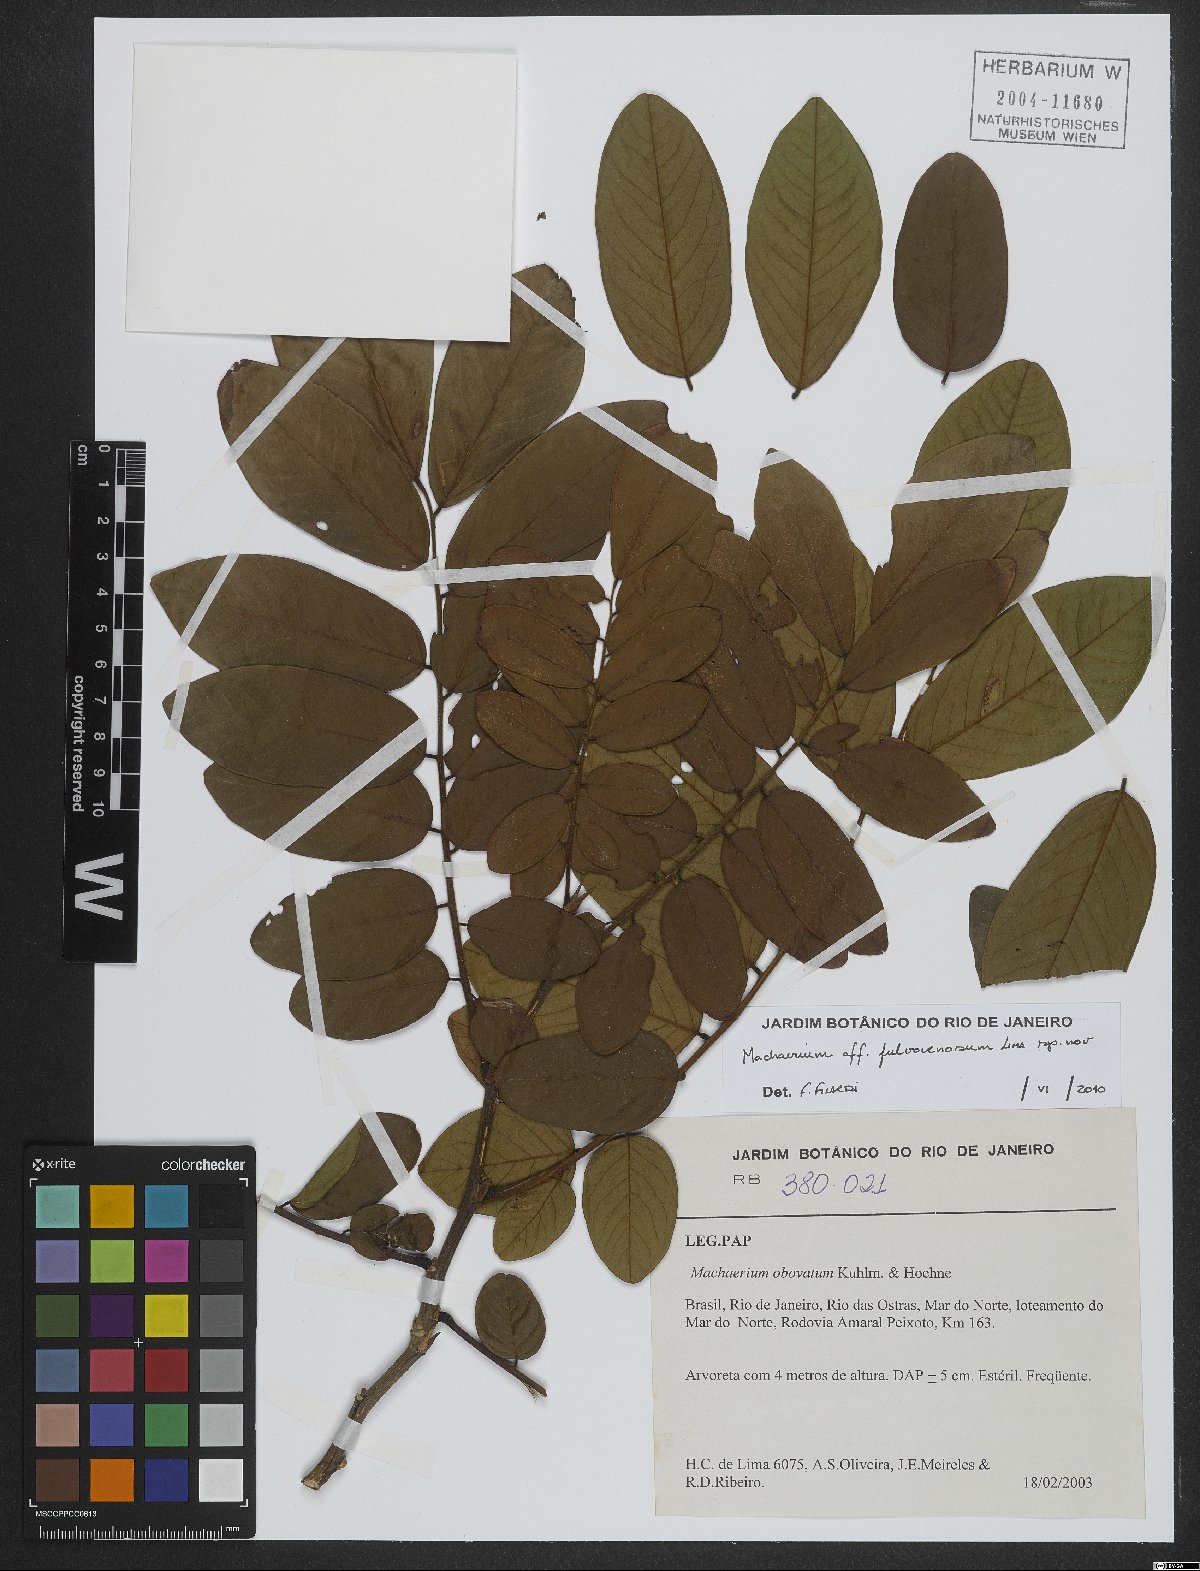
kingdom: Plantae
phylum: Tracheophyta
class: Magnoliopsida
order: Fabales
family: Fabaceae
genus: Machaerium
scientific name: Machaerium fulvovenosum
